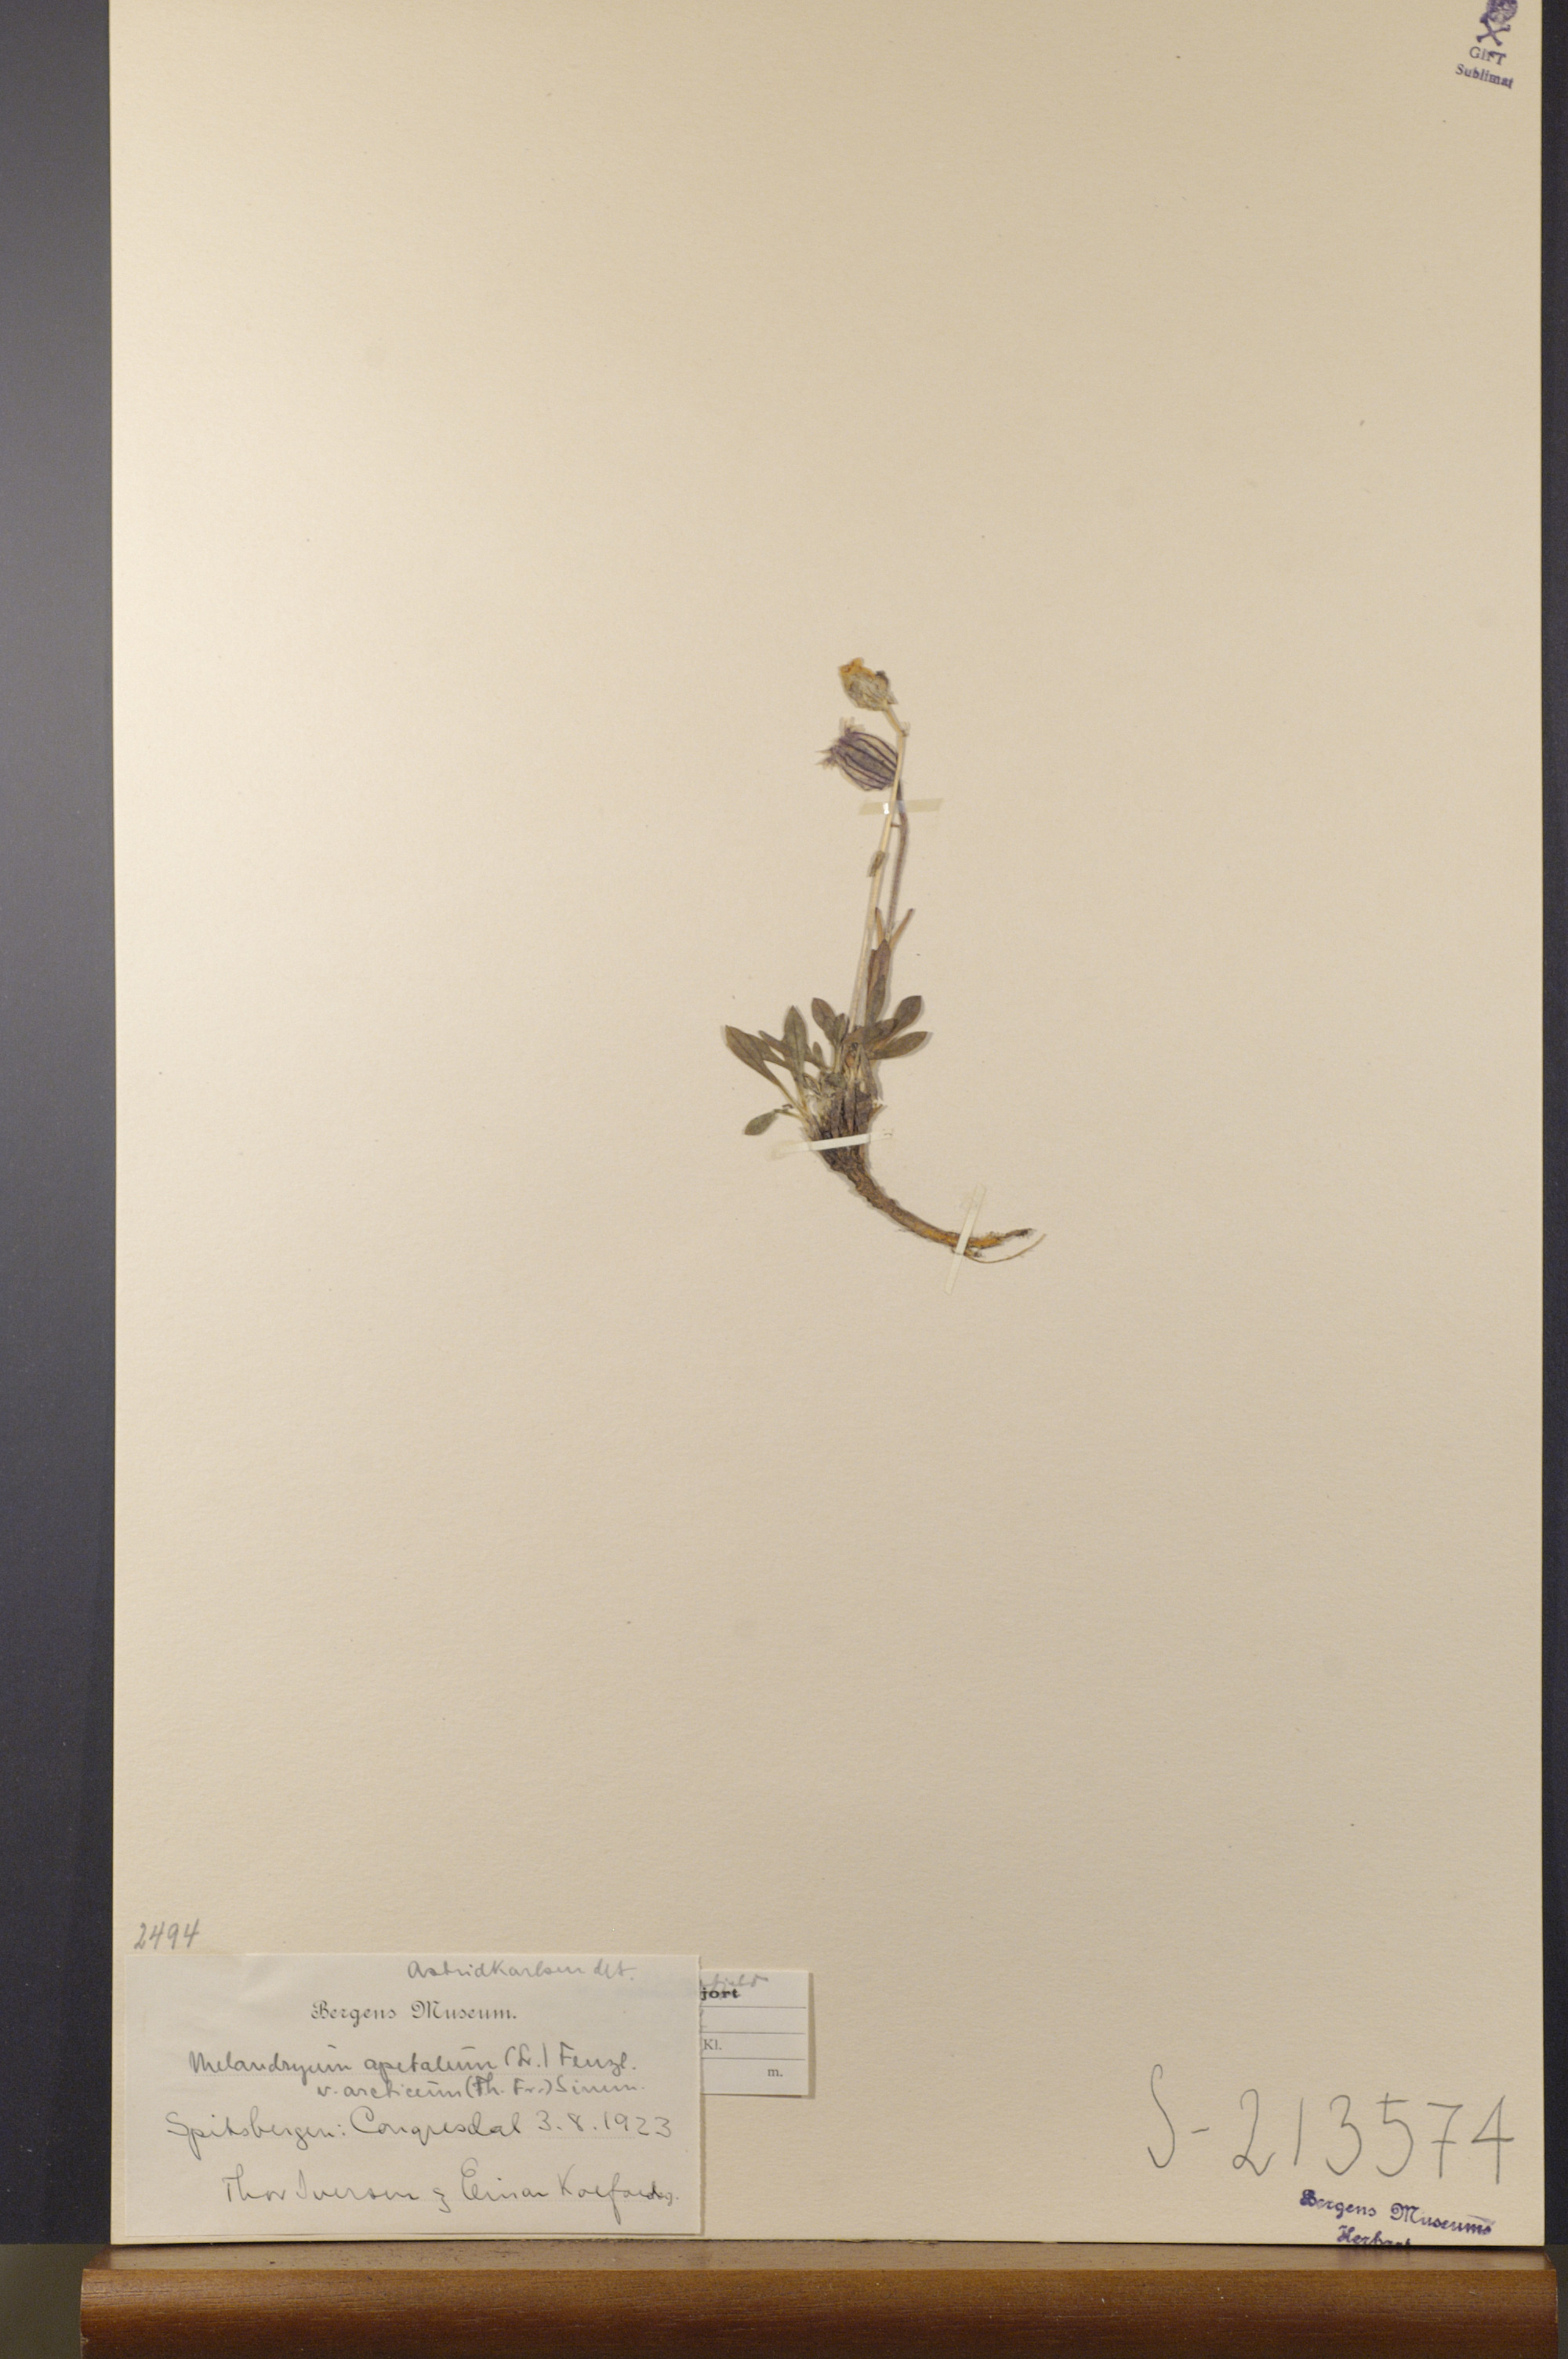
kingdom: Plantae
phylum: Tracheophyta
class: Magnoliopsida
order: Caryophyllales
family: Caryophyllaceae
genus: Silene
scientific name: Silene uralensis
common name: Nodding campion
